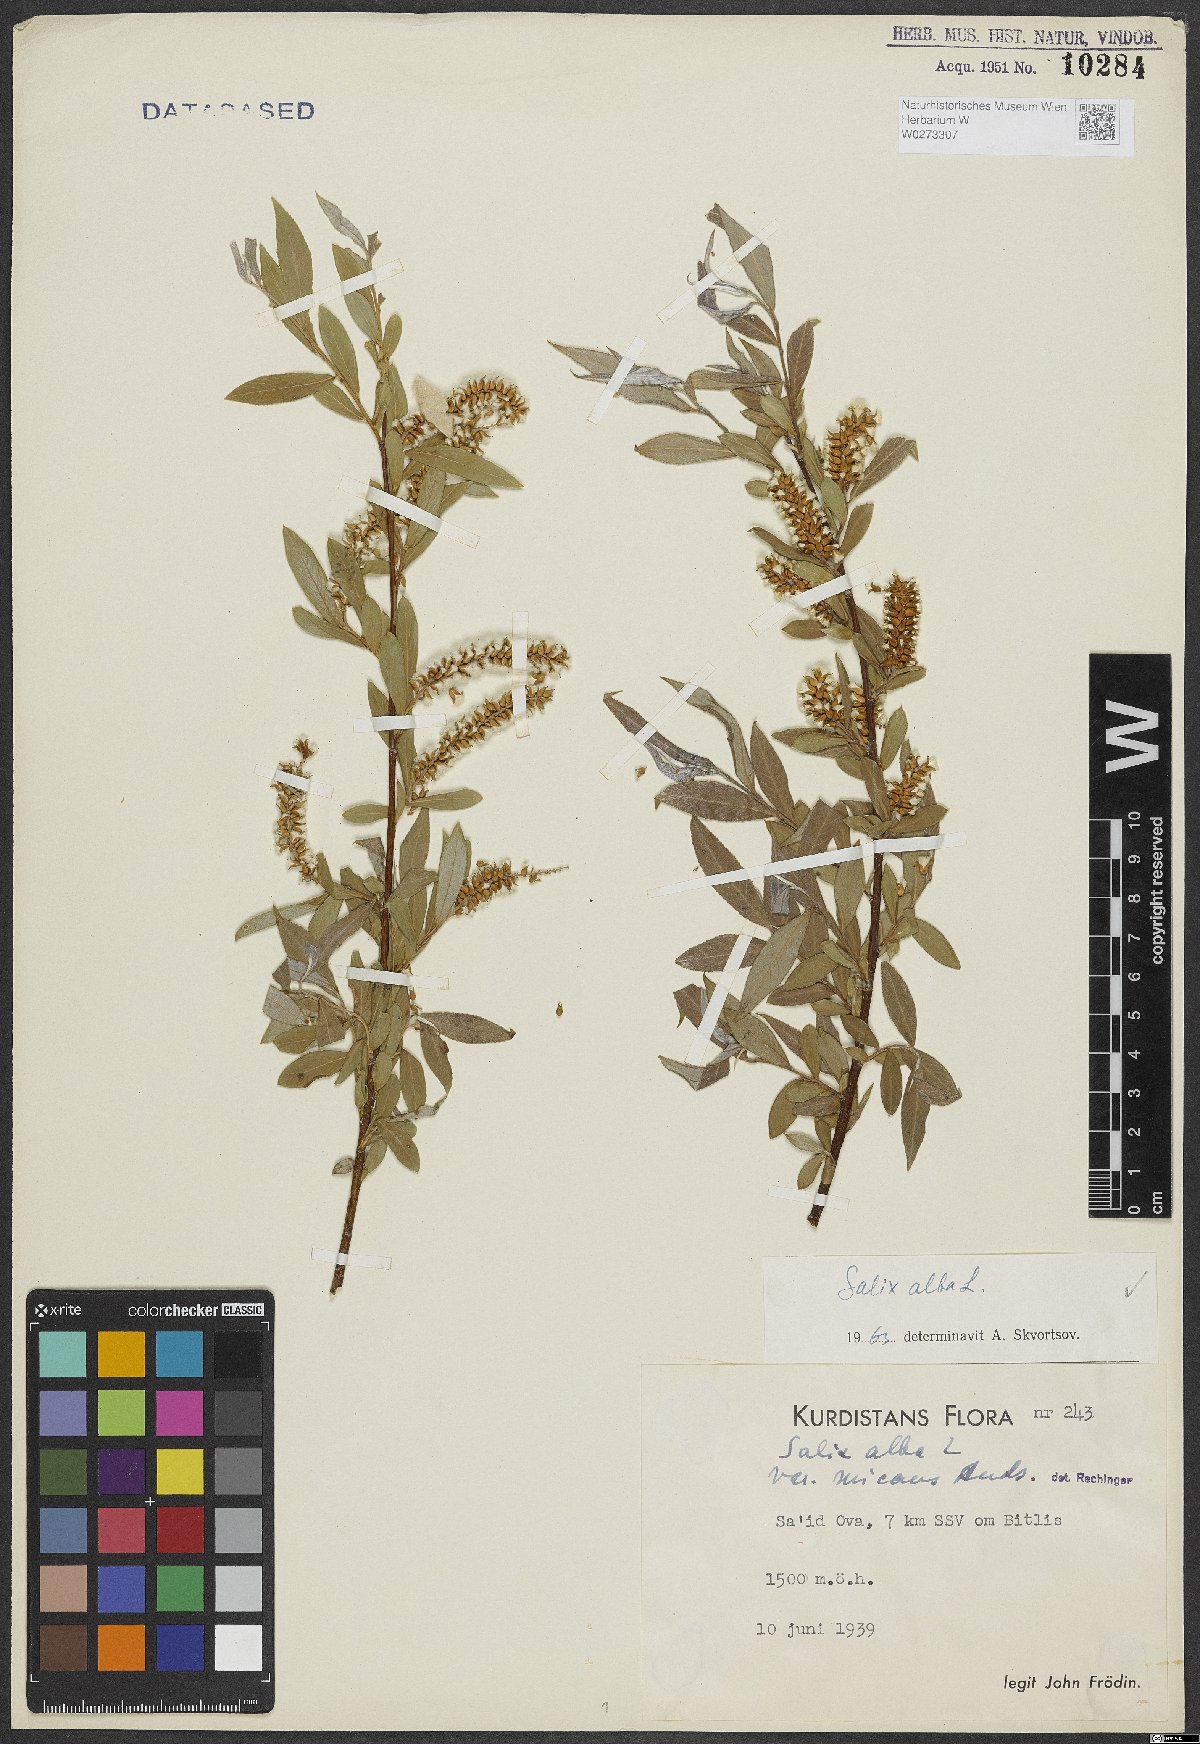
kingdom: Plantae
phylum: Tracheophyta
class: Magnoliopsida
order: Malpighiales
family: Salicaceae
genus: Salix
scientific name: Salix alba
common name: White willow
